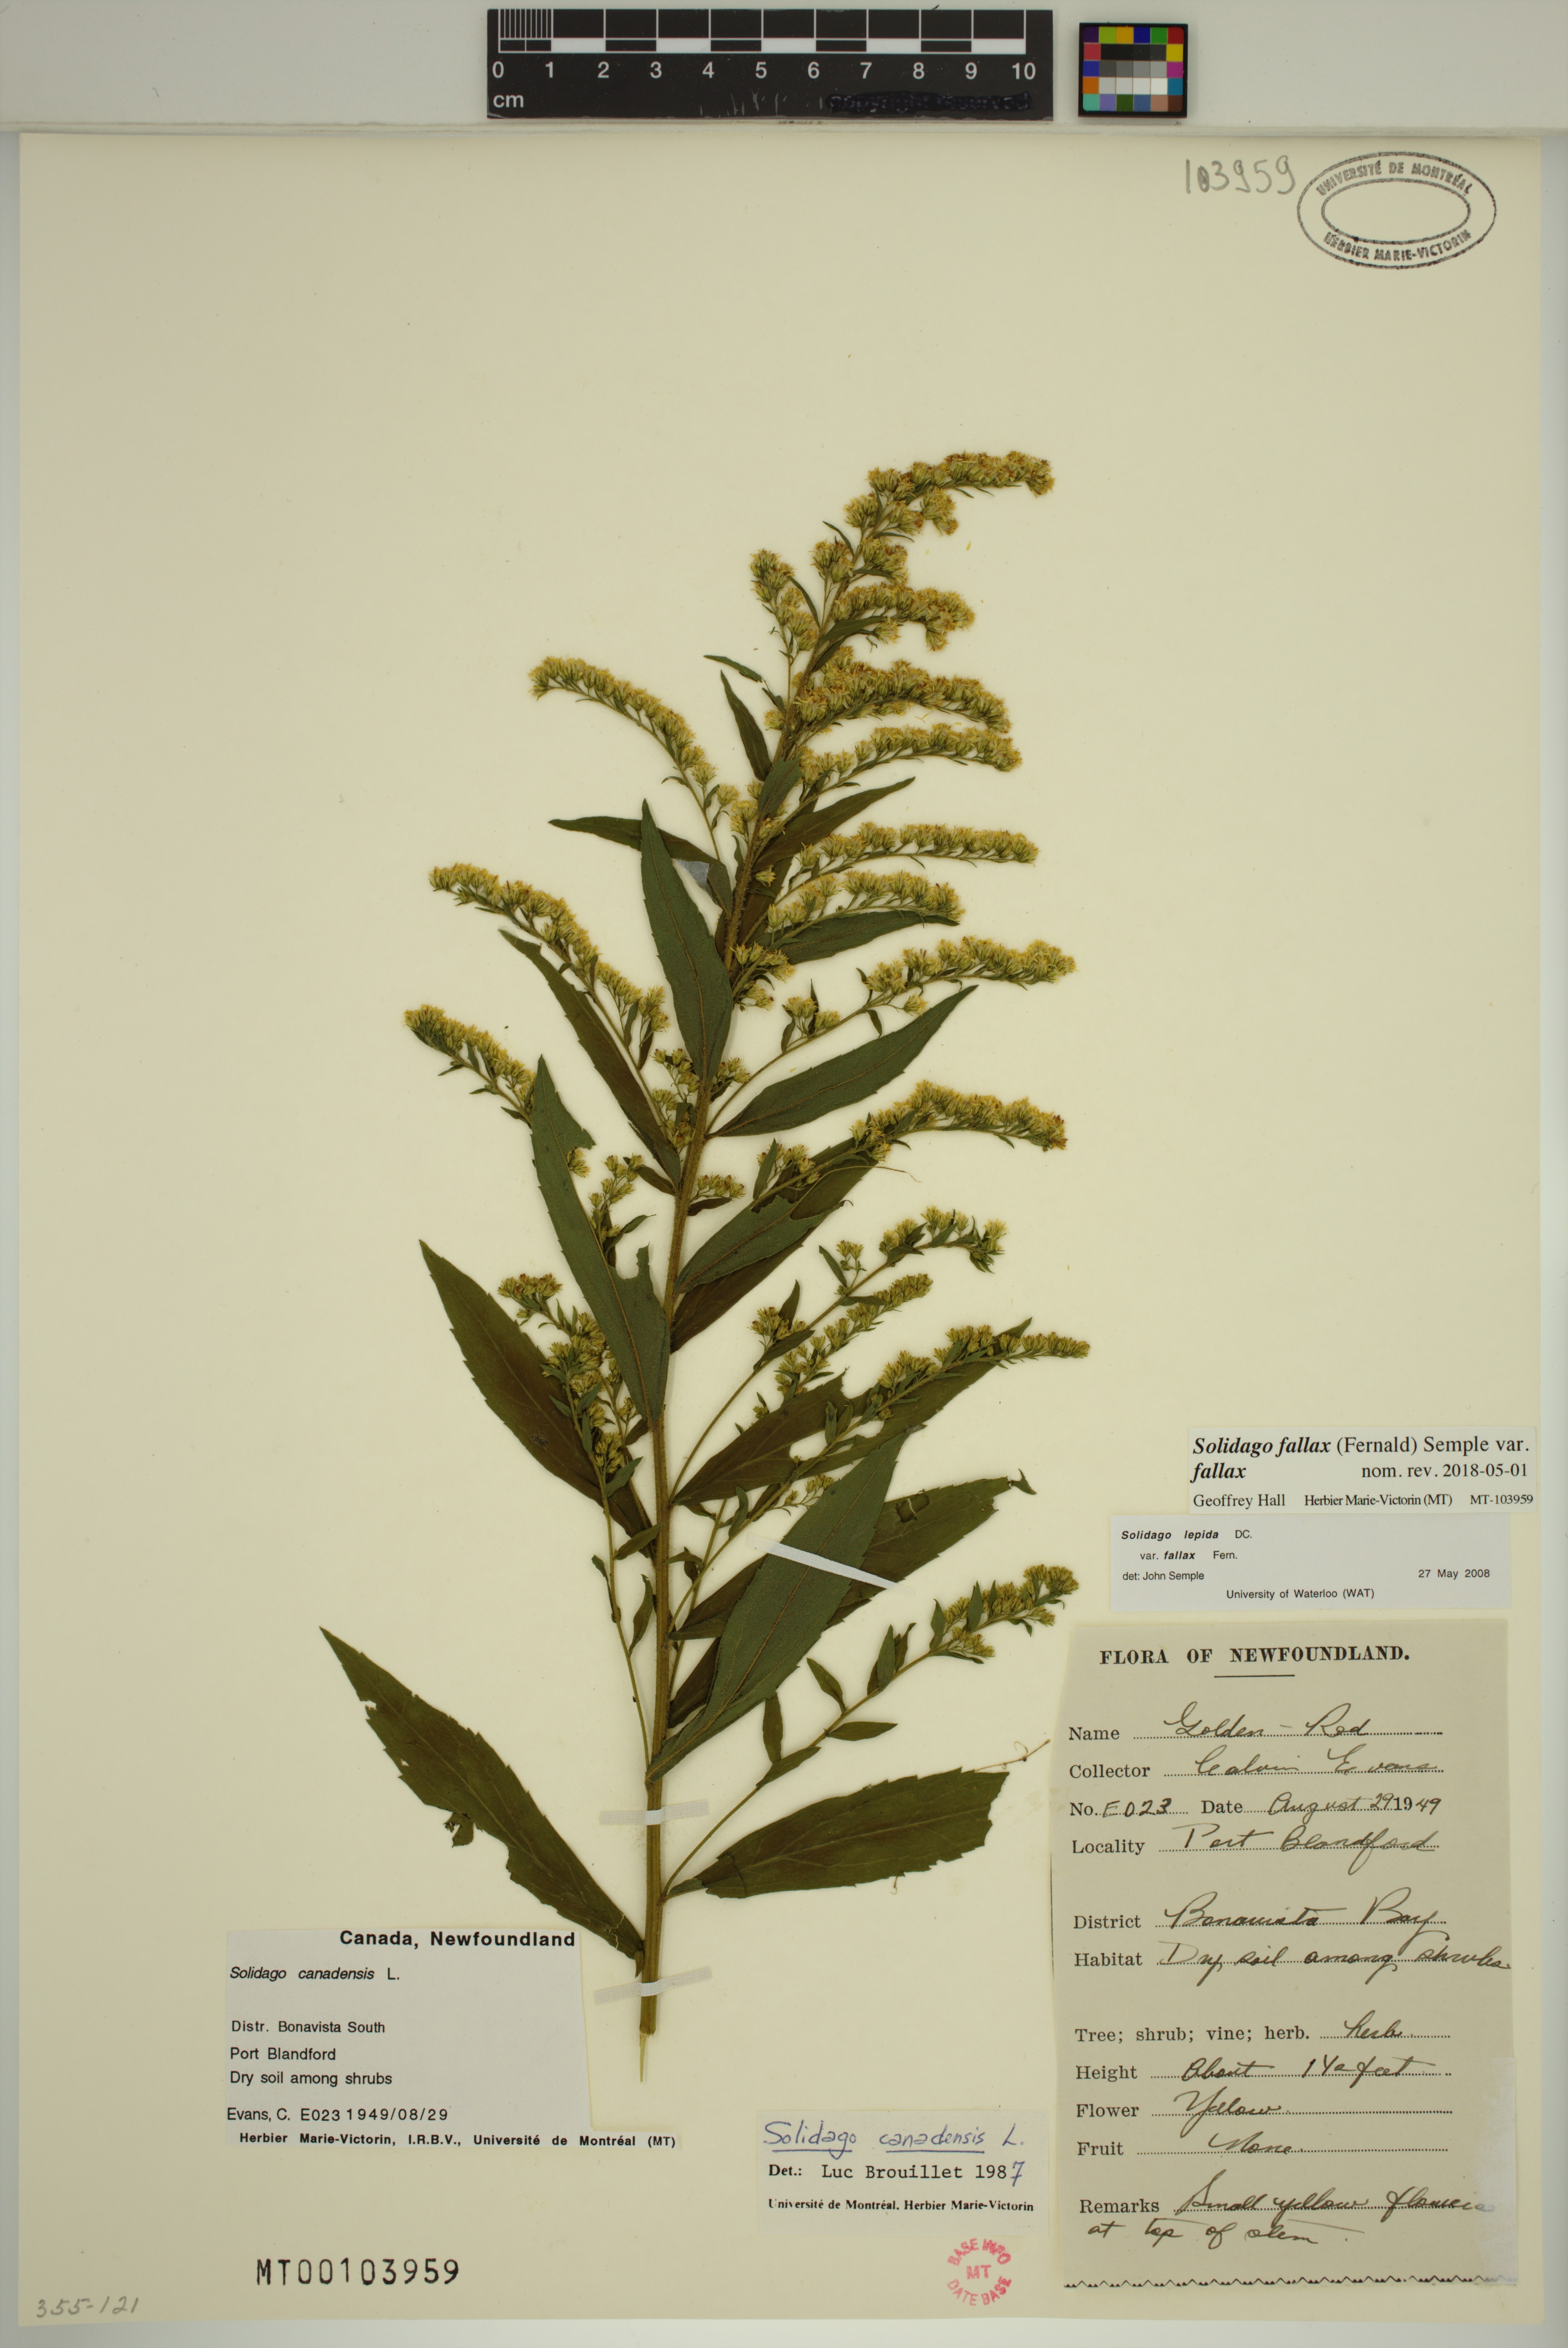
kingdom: Plantae
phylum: Tracheophyta
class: Magnoliopsida
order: Asterales
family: Asteraceae
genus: Solidago
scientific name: Solidago brendae
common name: Brenda's goldenrod
